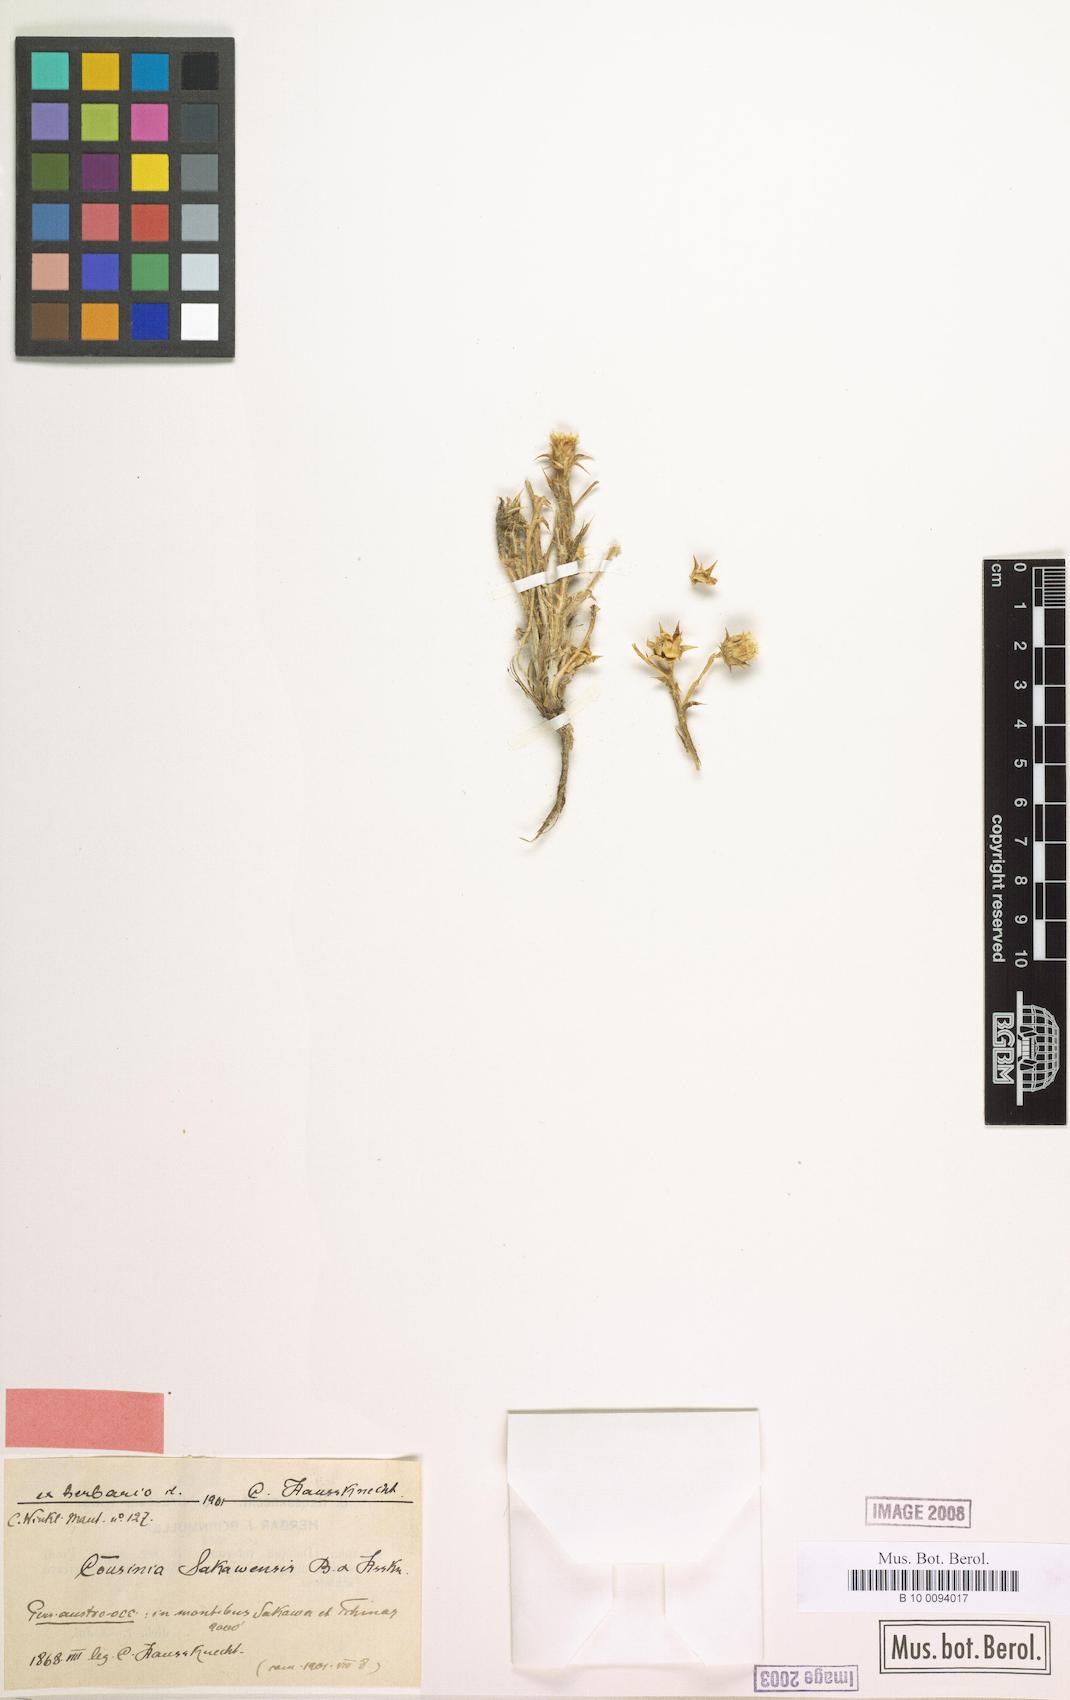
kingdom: Plantae
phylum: Tracheophyta
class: Magnoliopsida
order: Asterales
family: Asteraceae
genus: Cousinia
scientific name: Cousinia sakawensis
